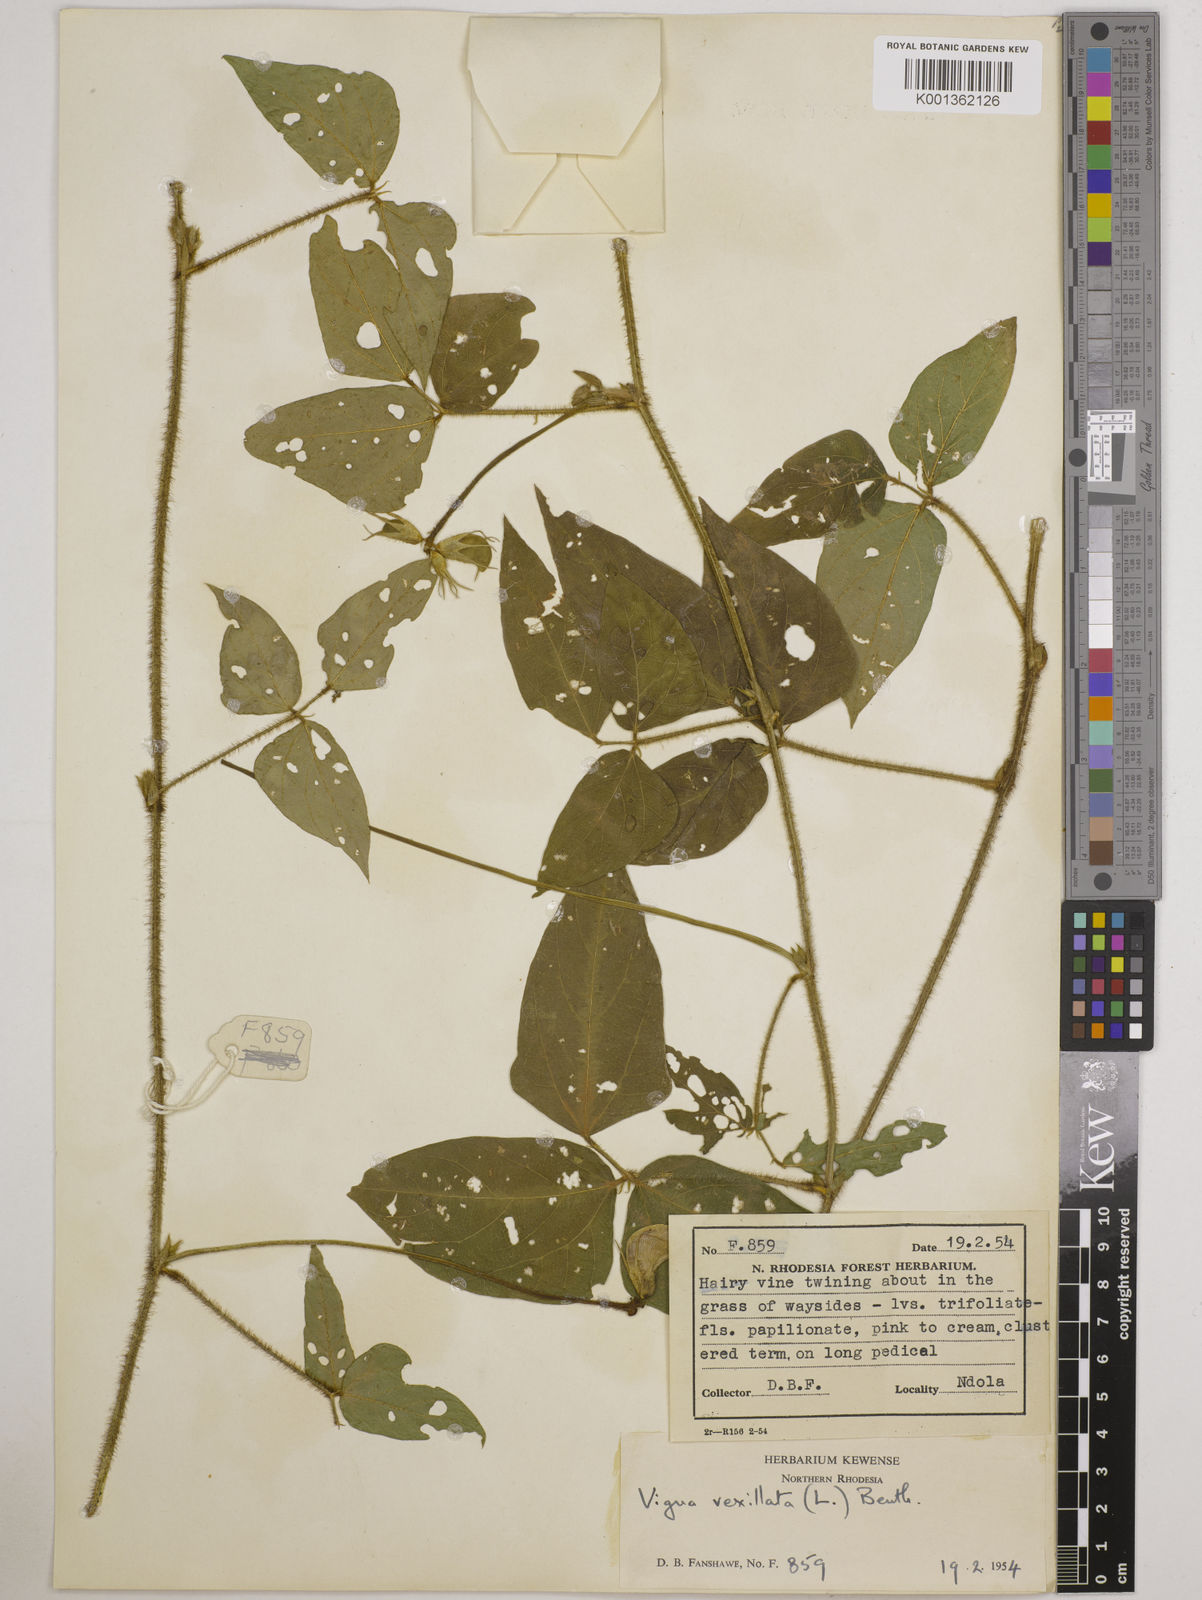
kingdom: Plantae
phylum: Tracheophyta
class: Magnoliopsida
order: Fabales
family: Fabaceae
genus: Vigna
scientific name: Vigna vexillata
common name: Zombi pea
